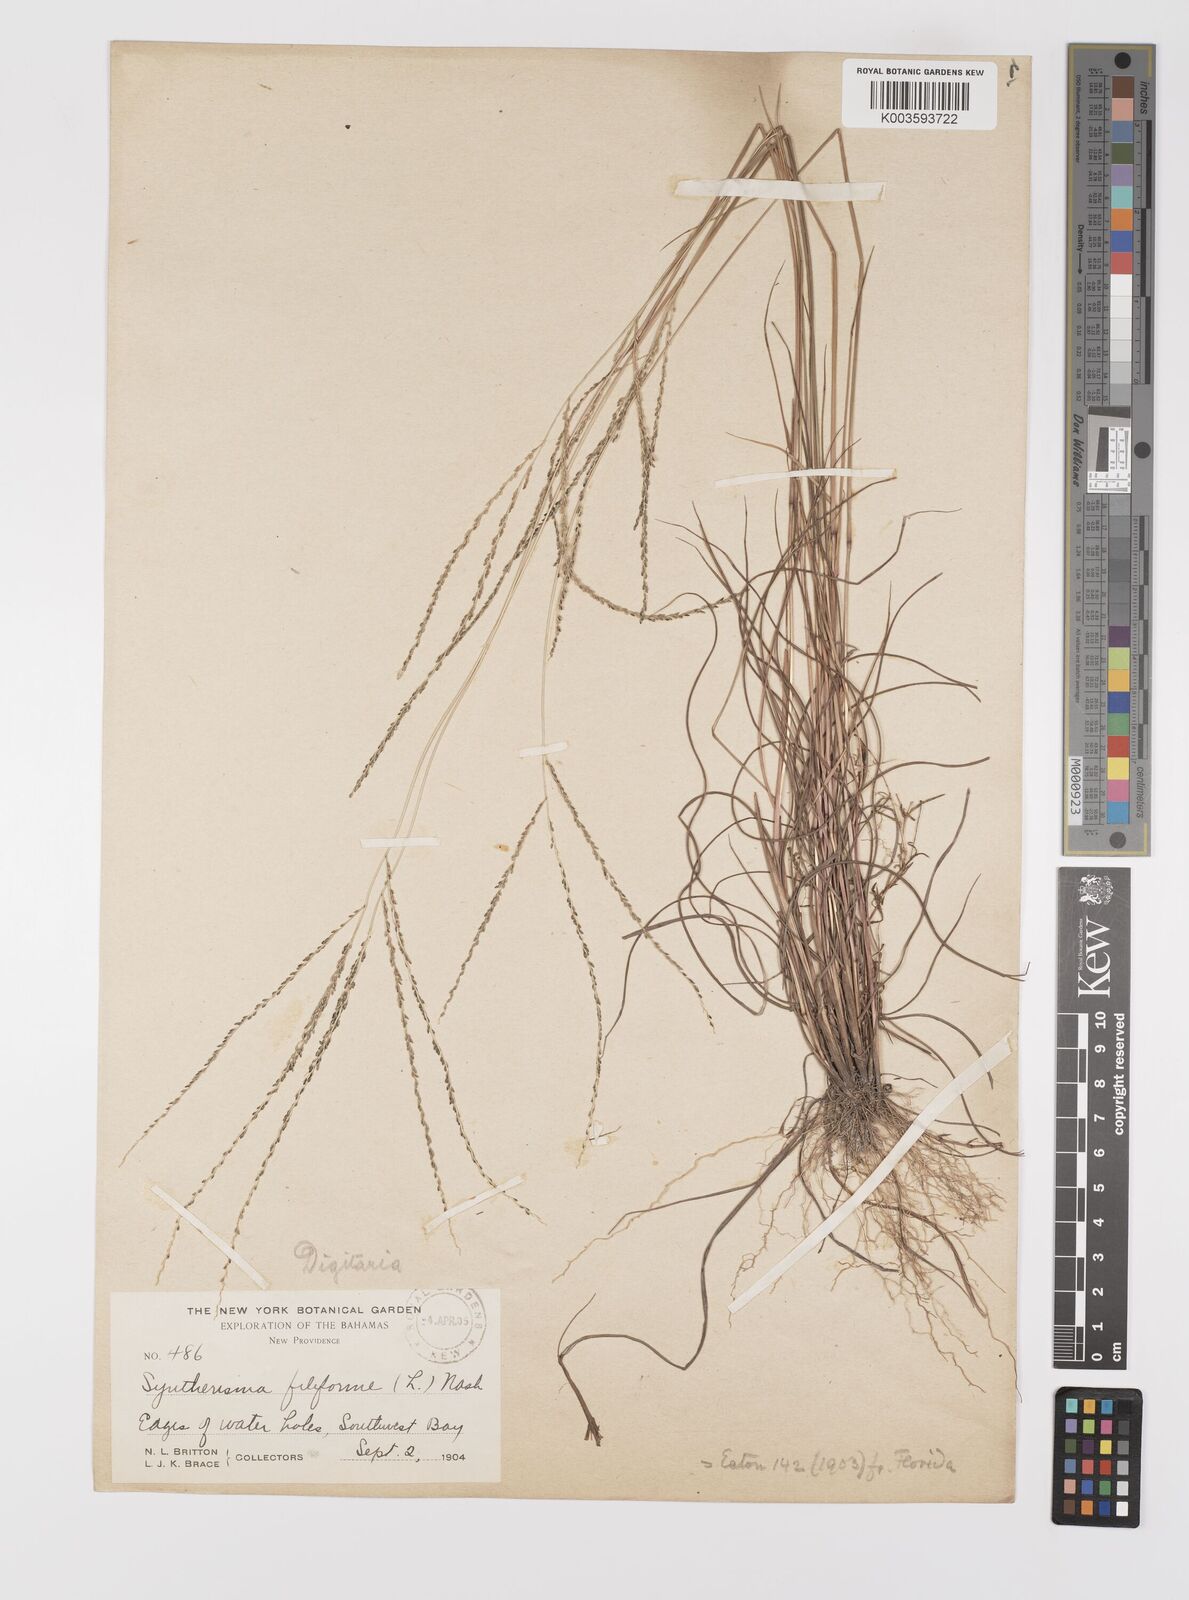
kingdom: Plantae
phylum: Tracheophyta
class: Liliopsida
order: Poales
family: Poaceae
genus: Digitaria
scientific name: Digitaria villosa
